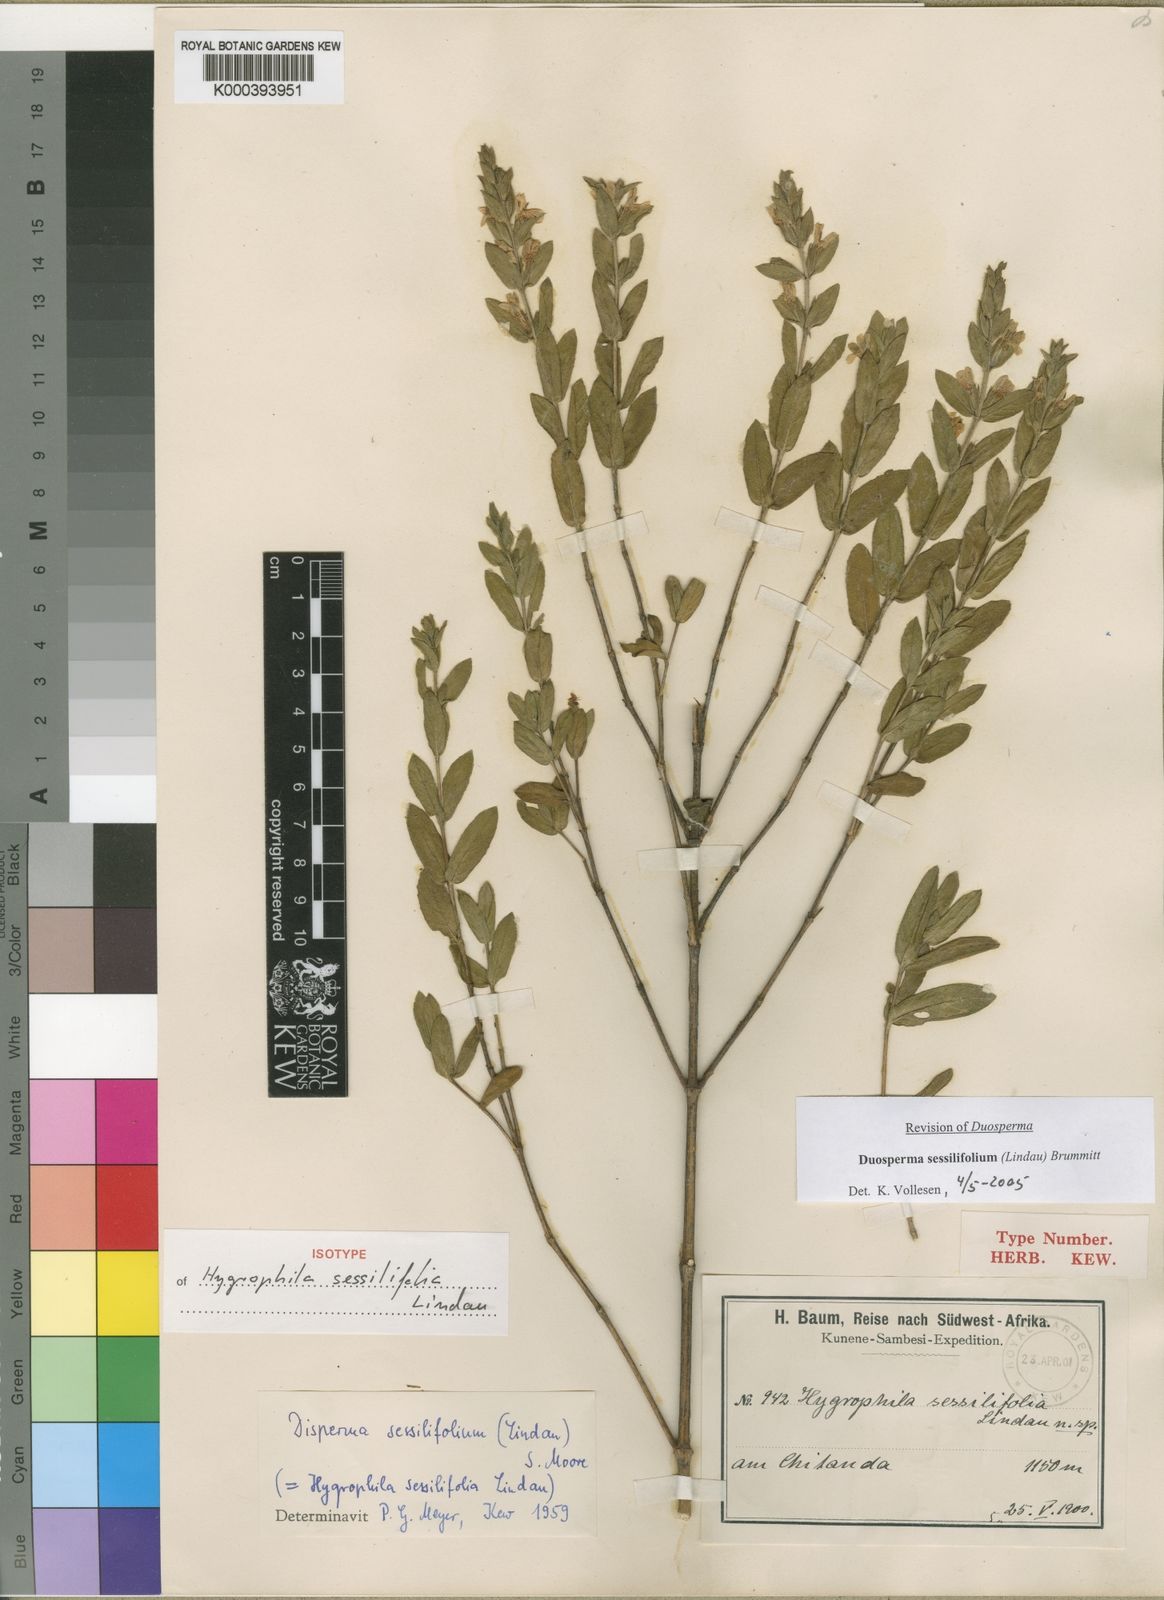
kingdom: Plantae
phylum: Tracheophyta
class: Magnoliopsida
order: Lamiales
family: Acanthaceae
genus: Duosperma
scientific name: Duosperma sessilifolium
